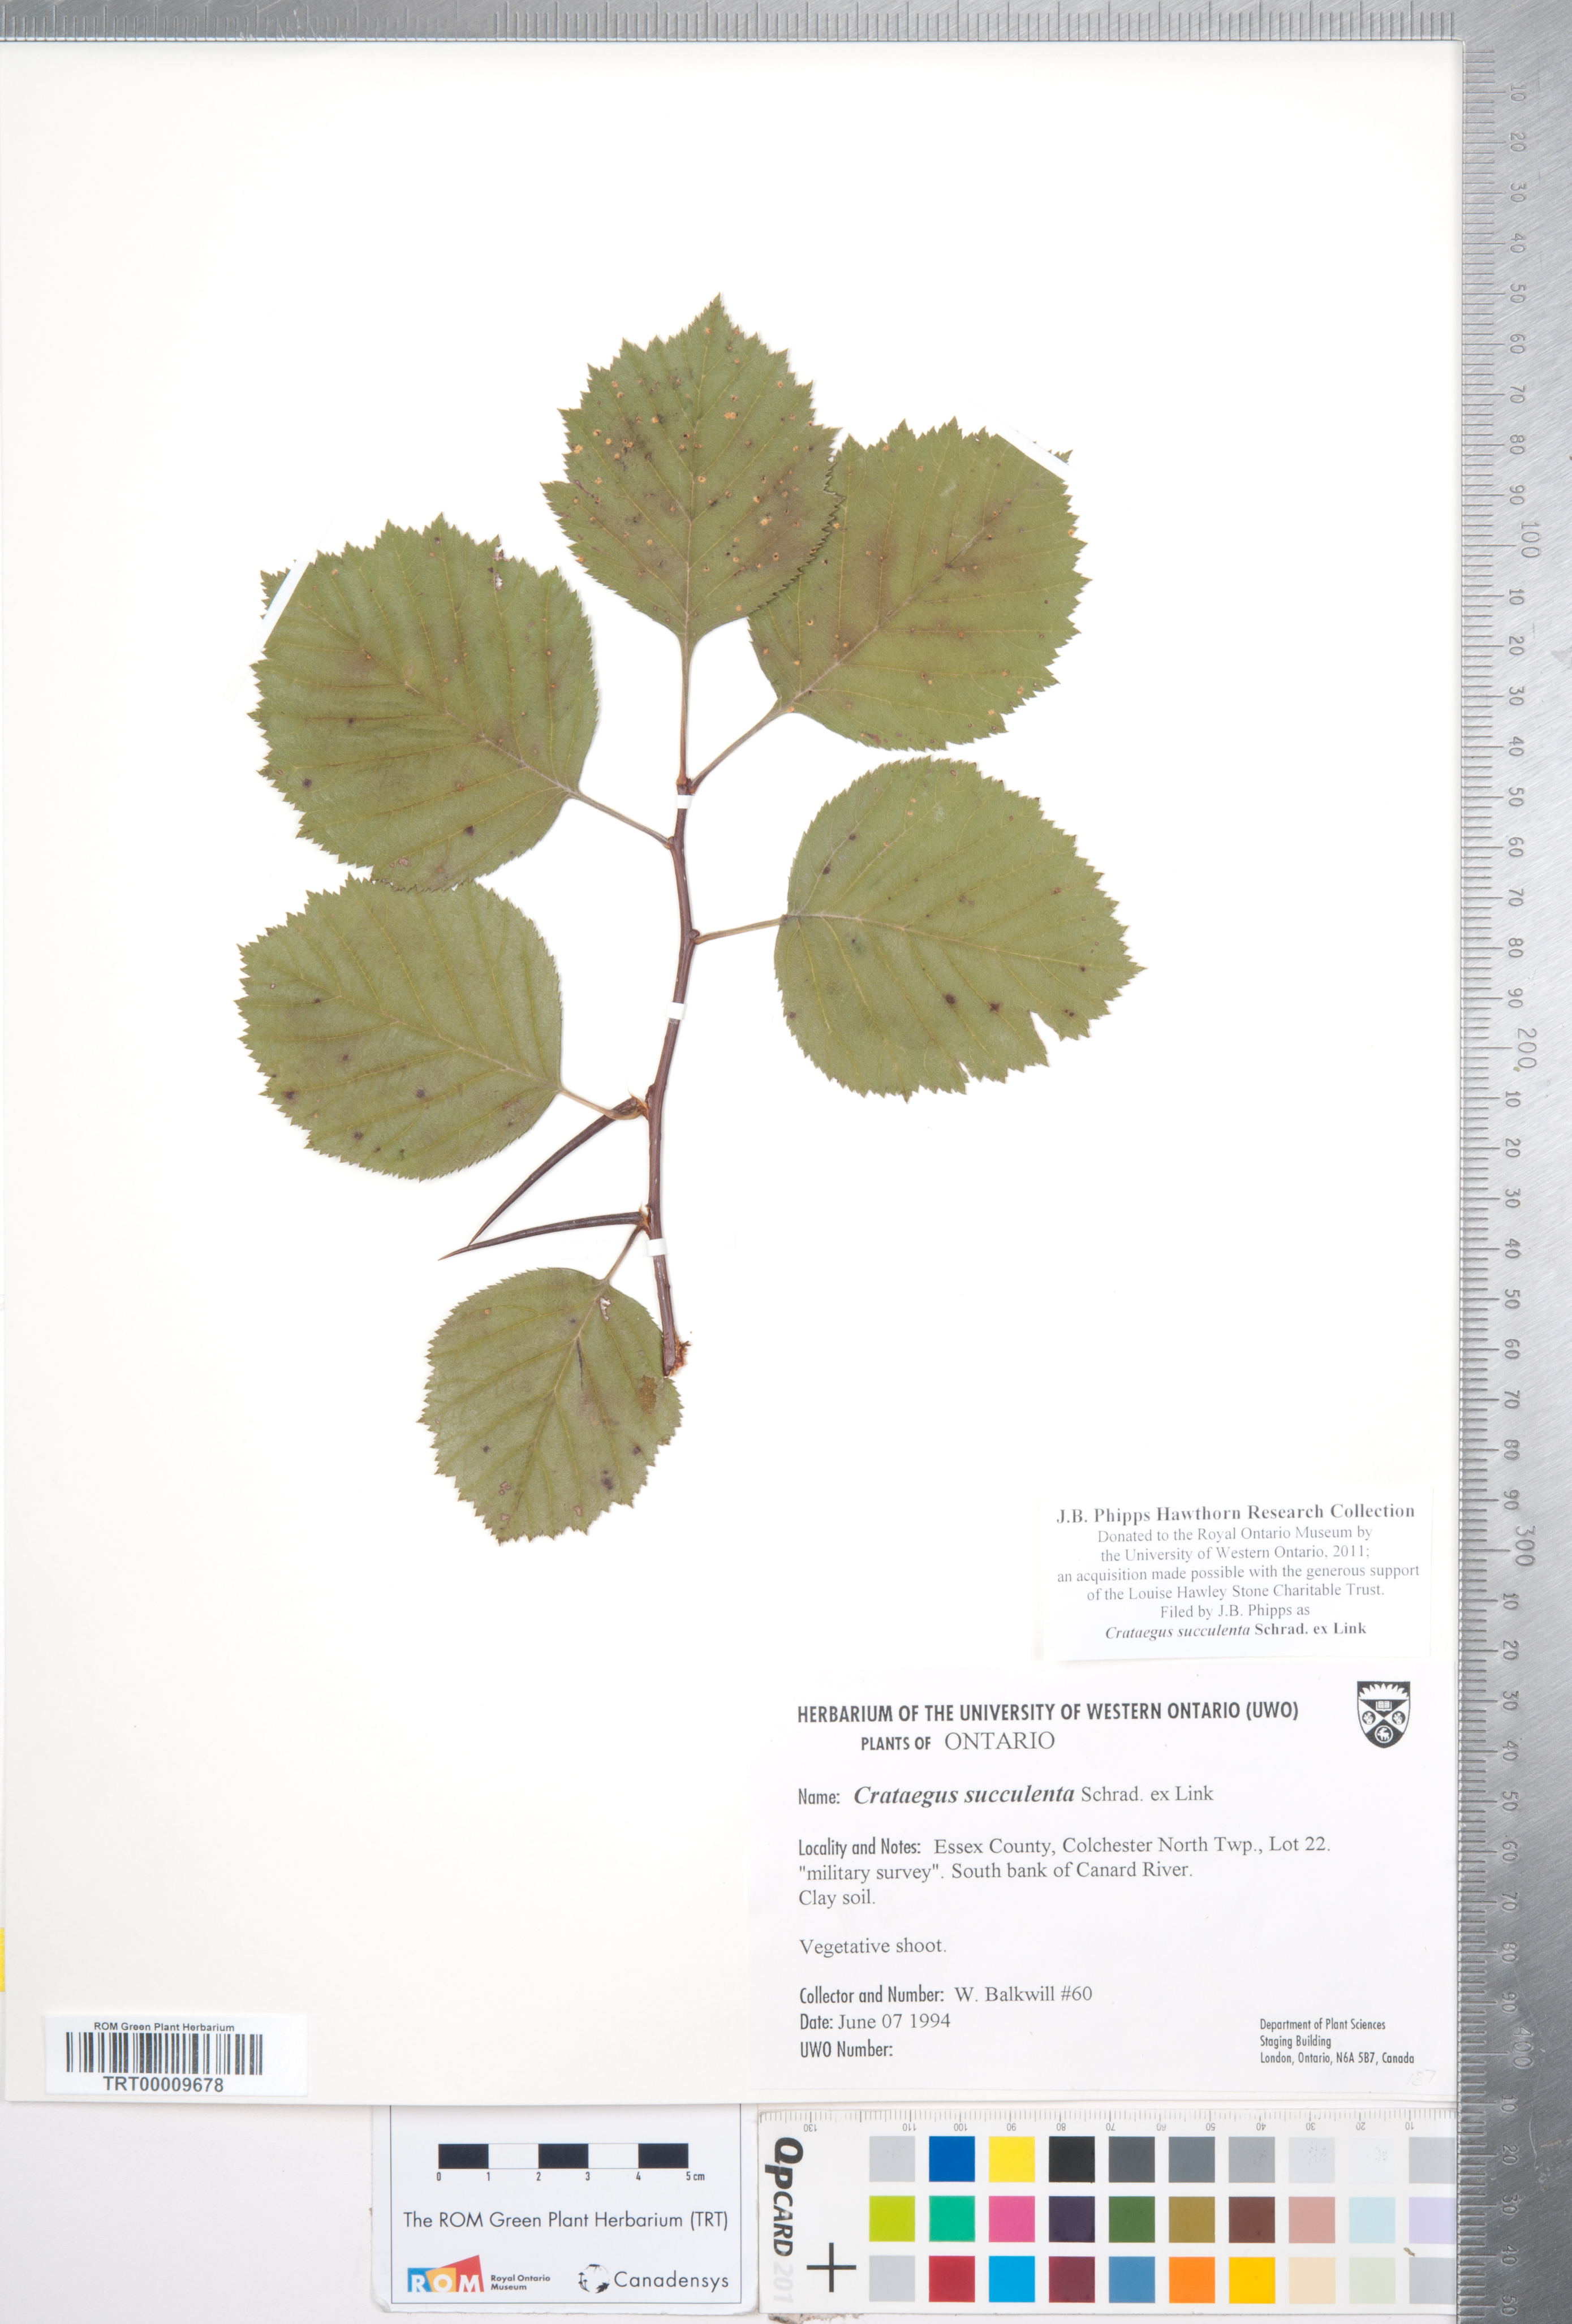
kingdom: Plantae
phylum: Tracheophyta
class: Magnoliopsida
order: Rosales
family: Rosaceae
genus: Crataegus
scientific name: Crataegus succulenta
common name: Fleshy hawthorn
